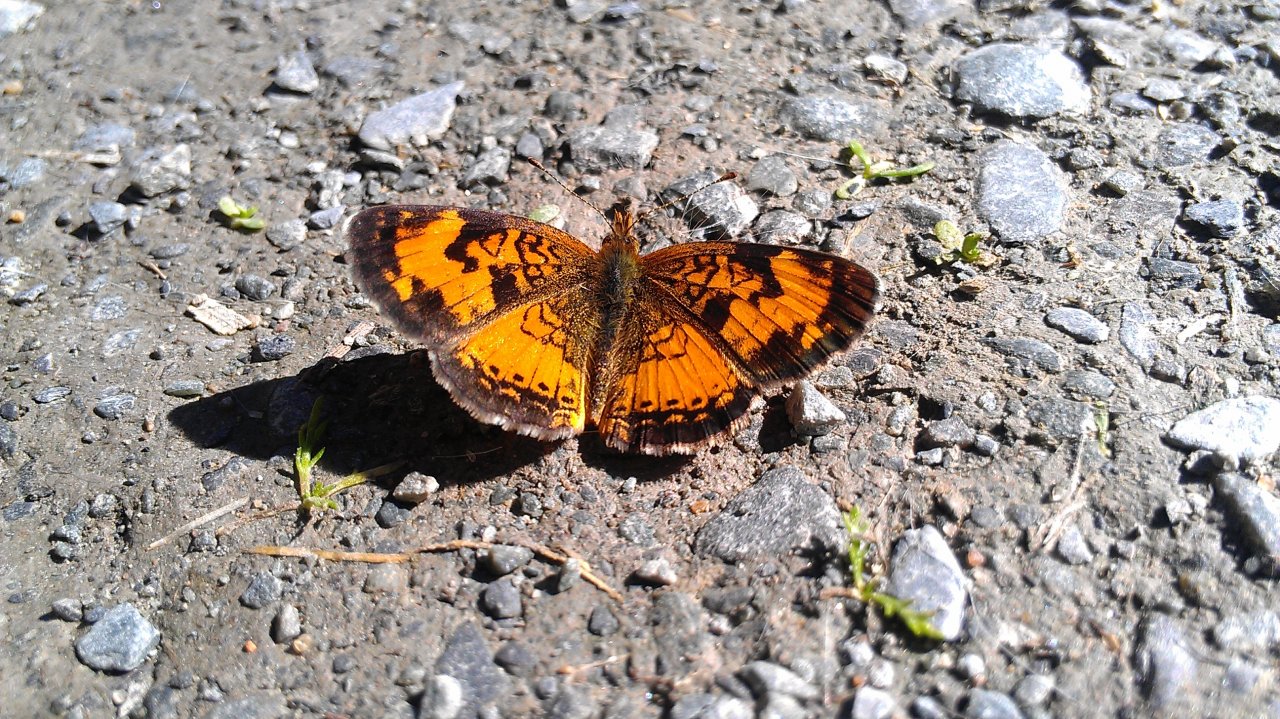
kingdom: Animalia
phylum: Arthropoda
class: Insecta
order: Lepidoptera
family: Nymphalidae
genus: Phyciodes
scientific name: Phyciodes tharos
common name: Northern Crescent
